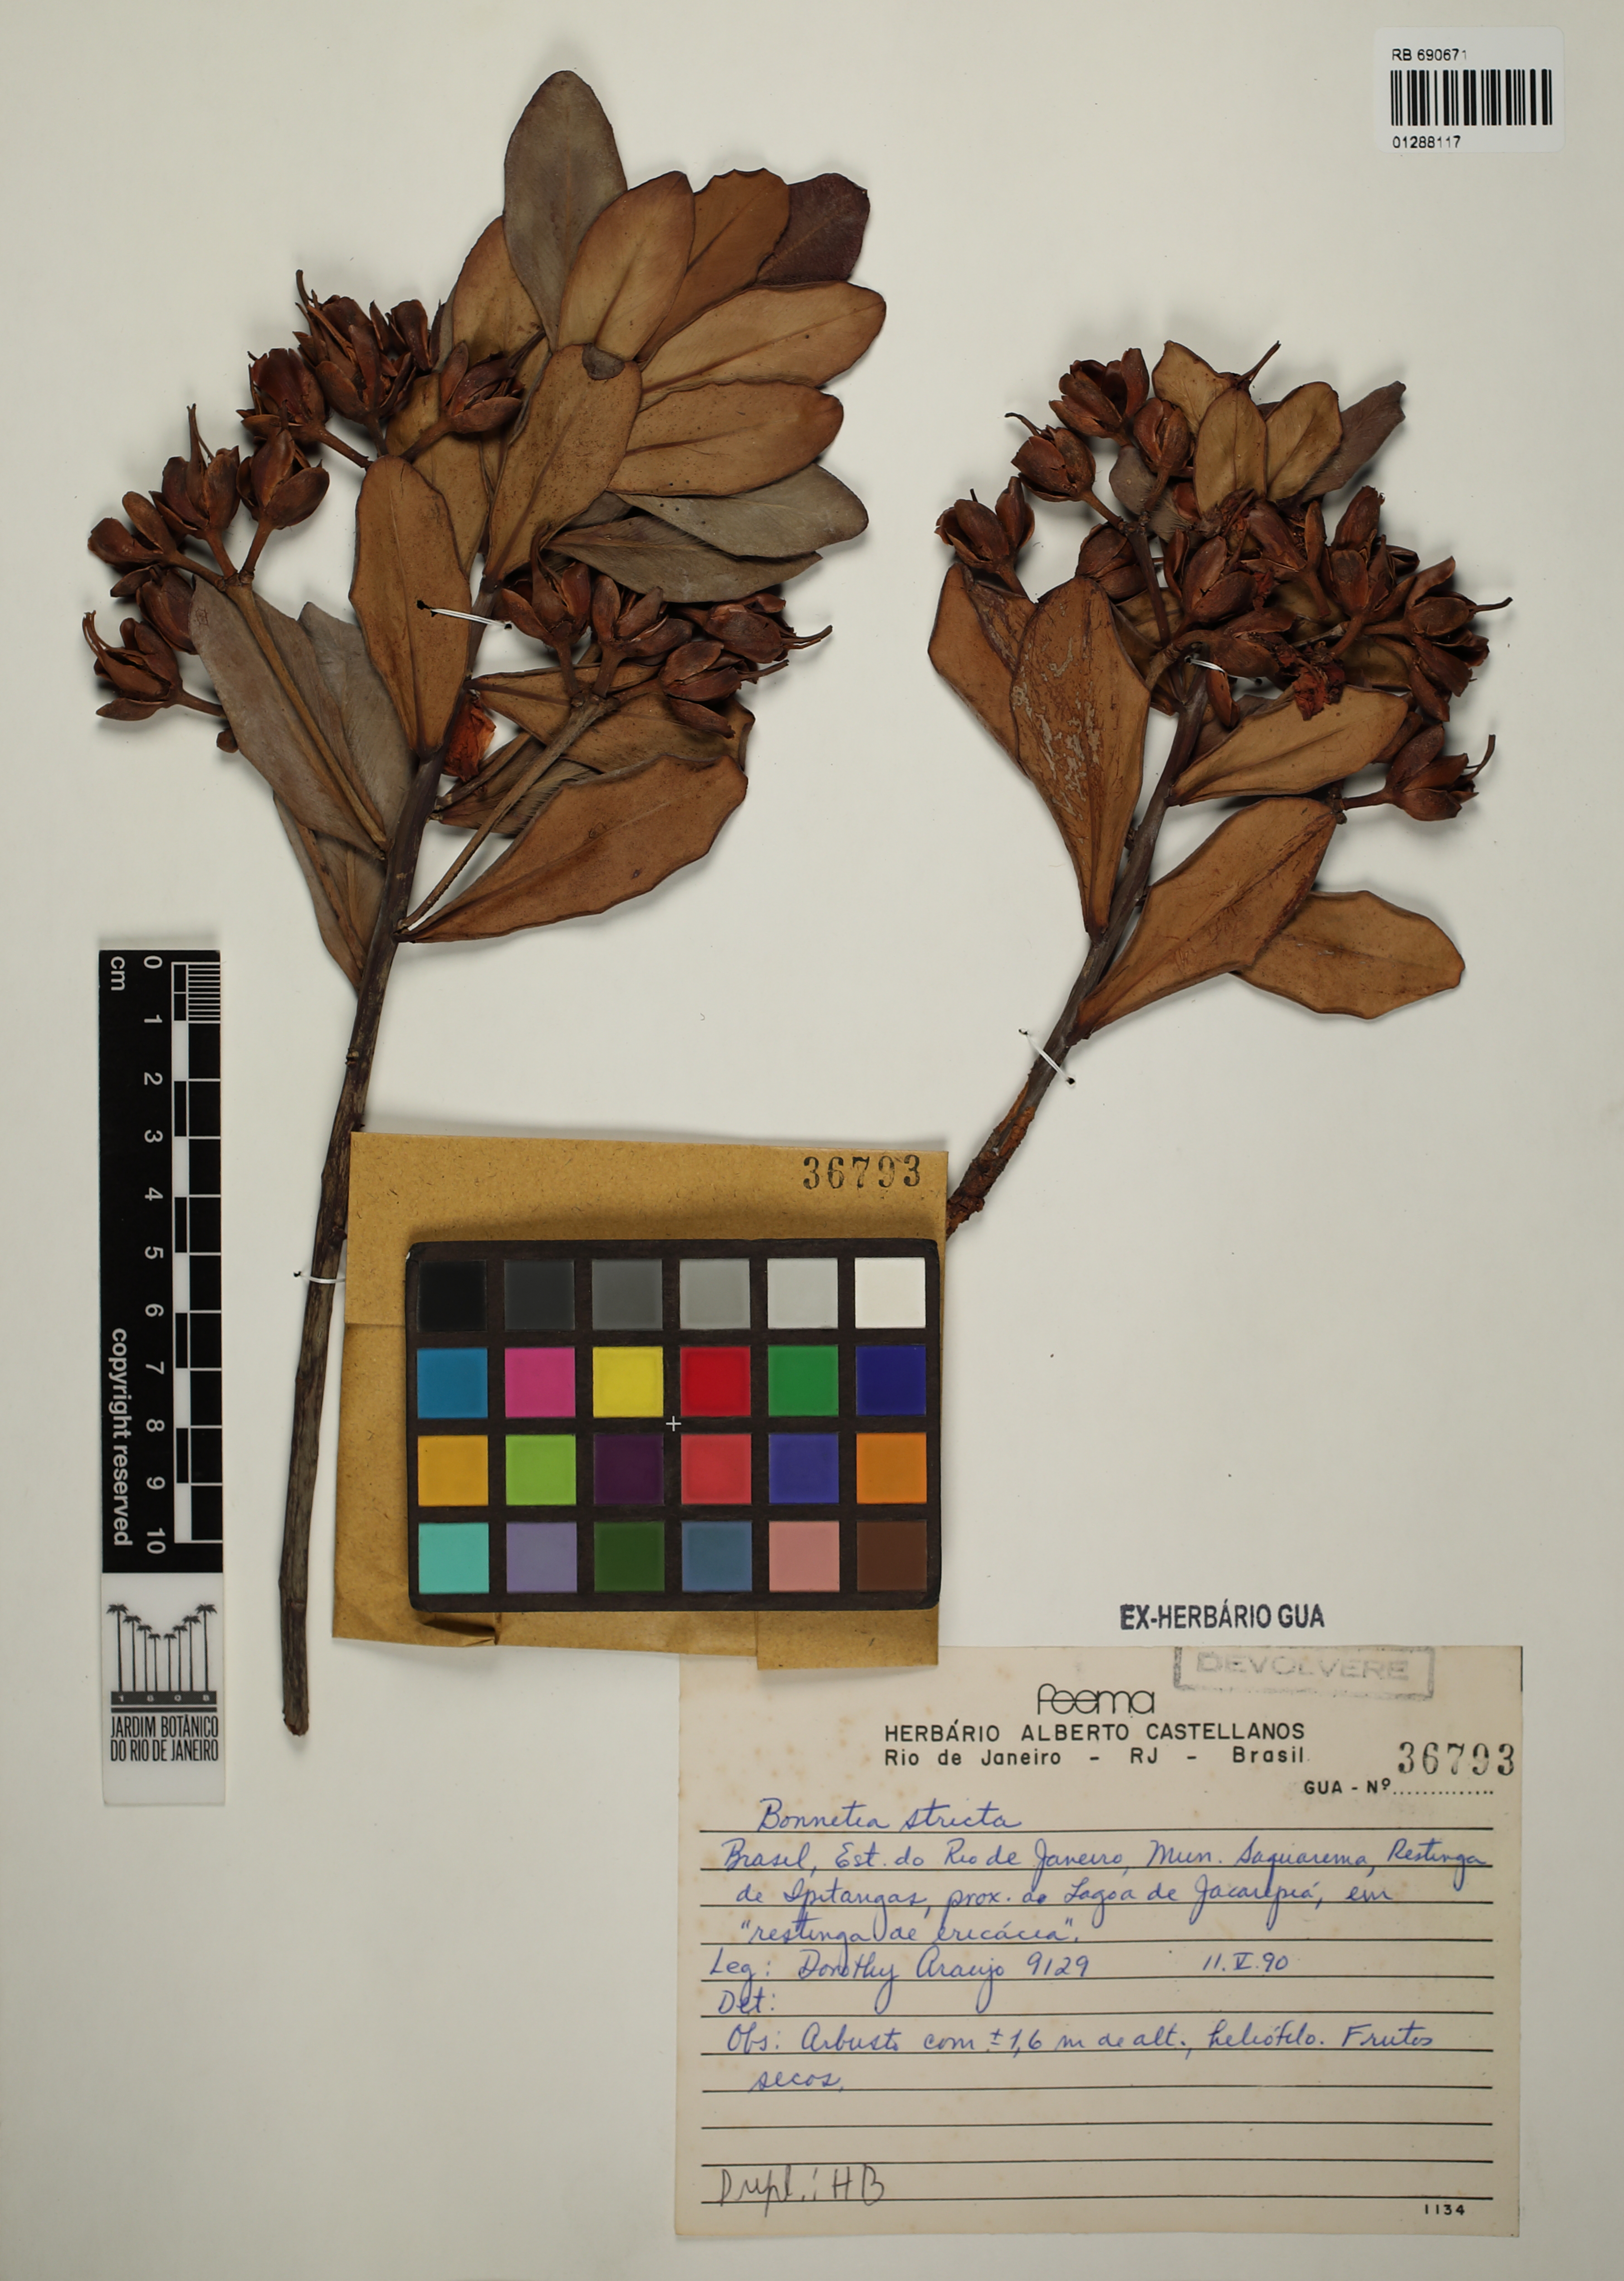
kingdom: Plantae
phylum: Tracheophyta
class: Magnoliopsida
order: Malpighiales
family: Bonnetiaceae
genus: Bonnetia
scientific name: Bonnetia stricta
